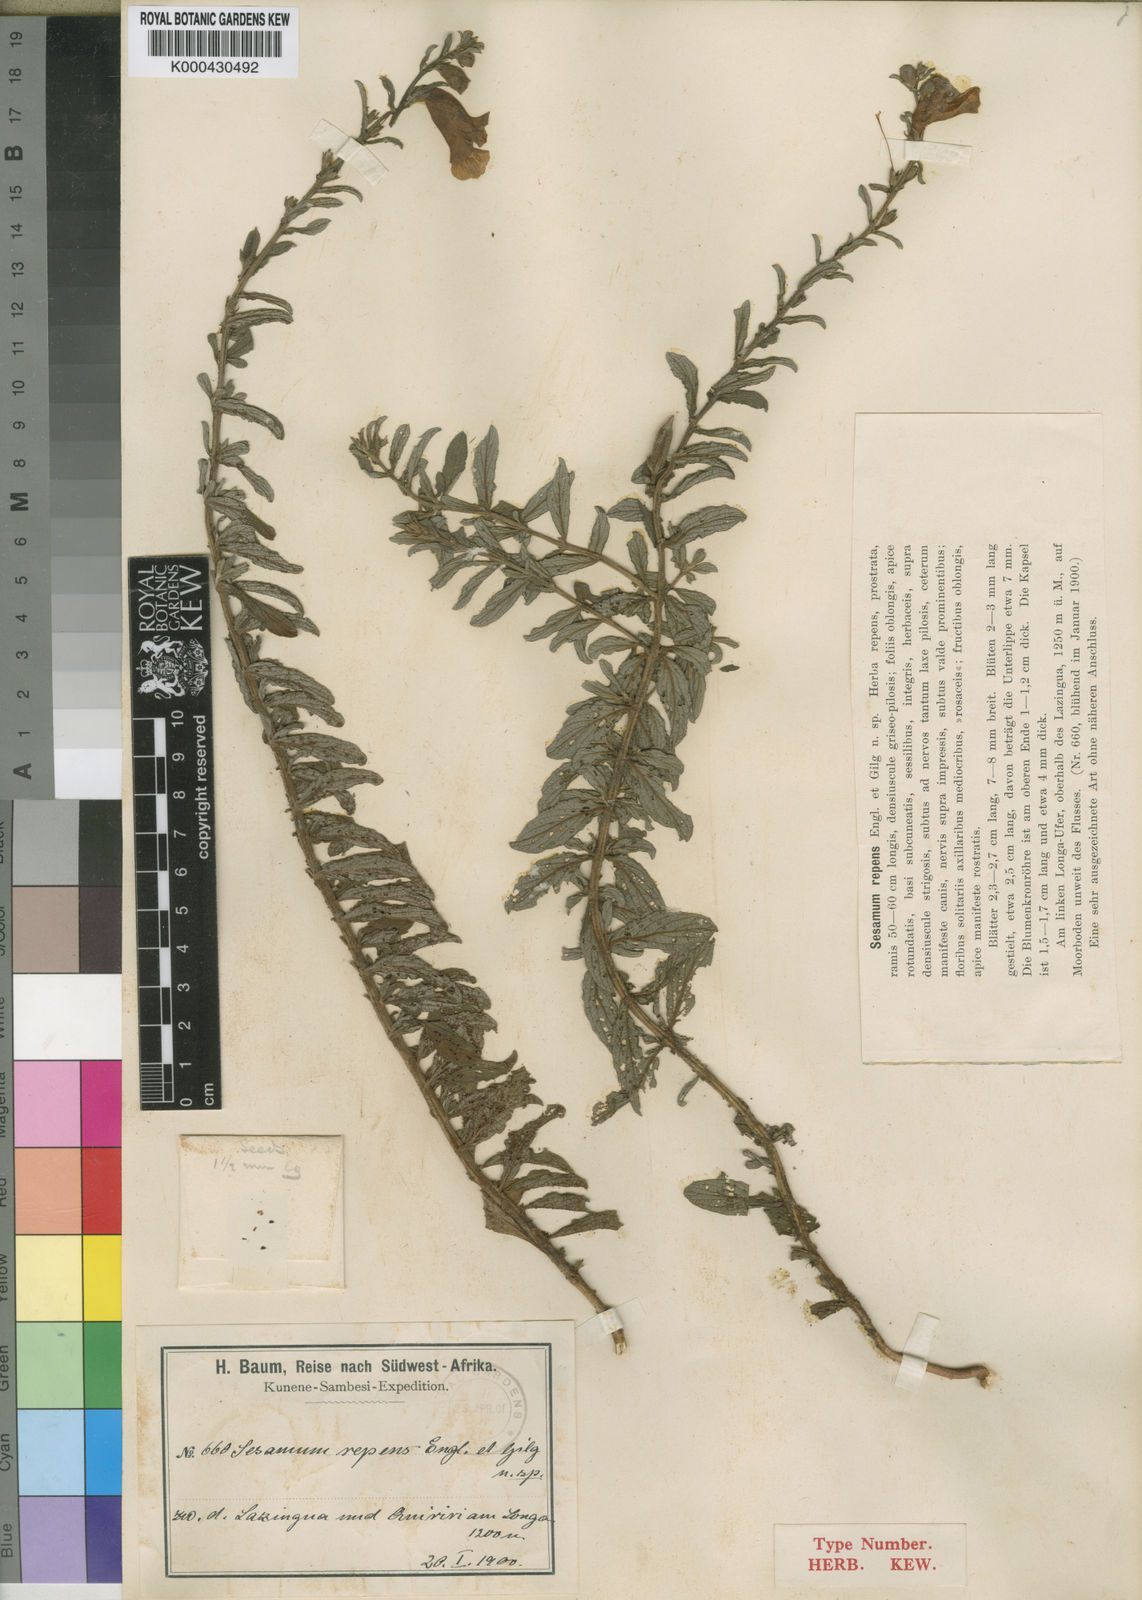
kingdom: Plantae
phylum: Tracheophyta
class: Magnoliopsida
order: Lamiales
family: Pedaliaceae
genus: Sesamum
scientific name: Sesamum calycinum
